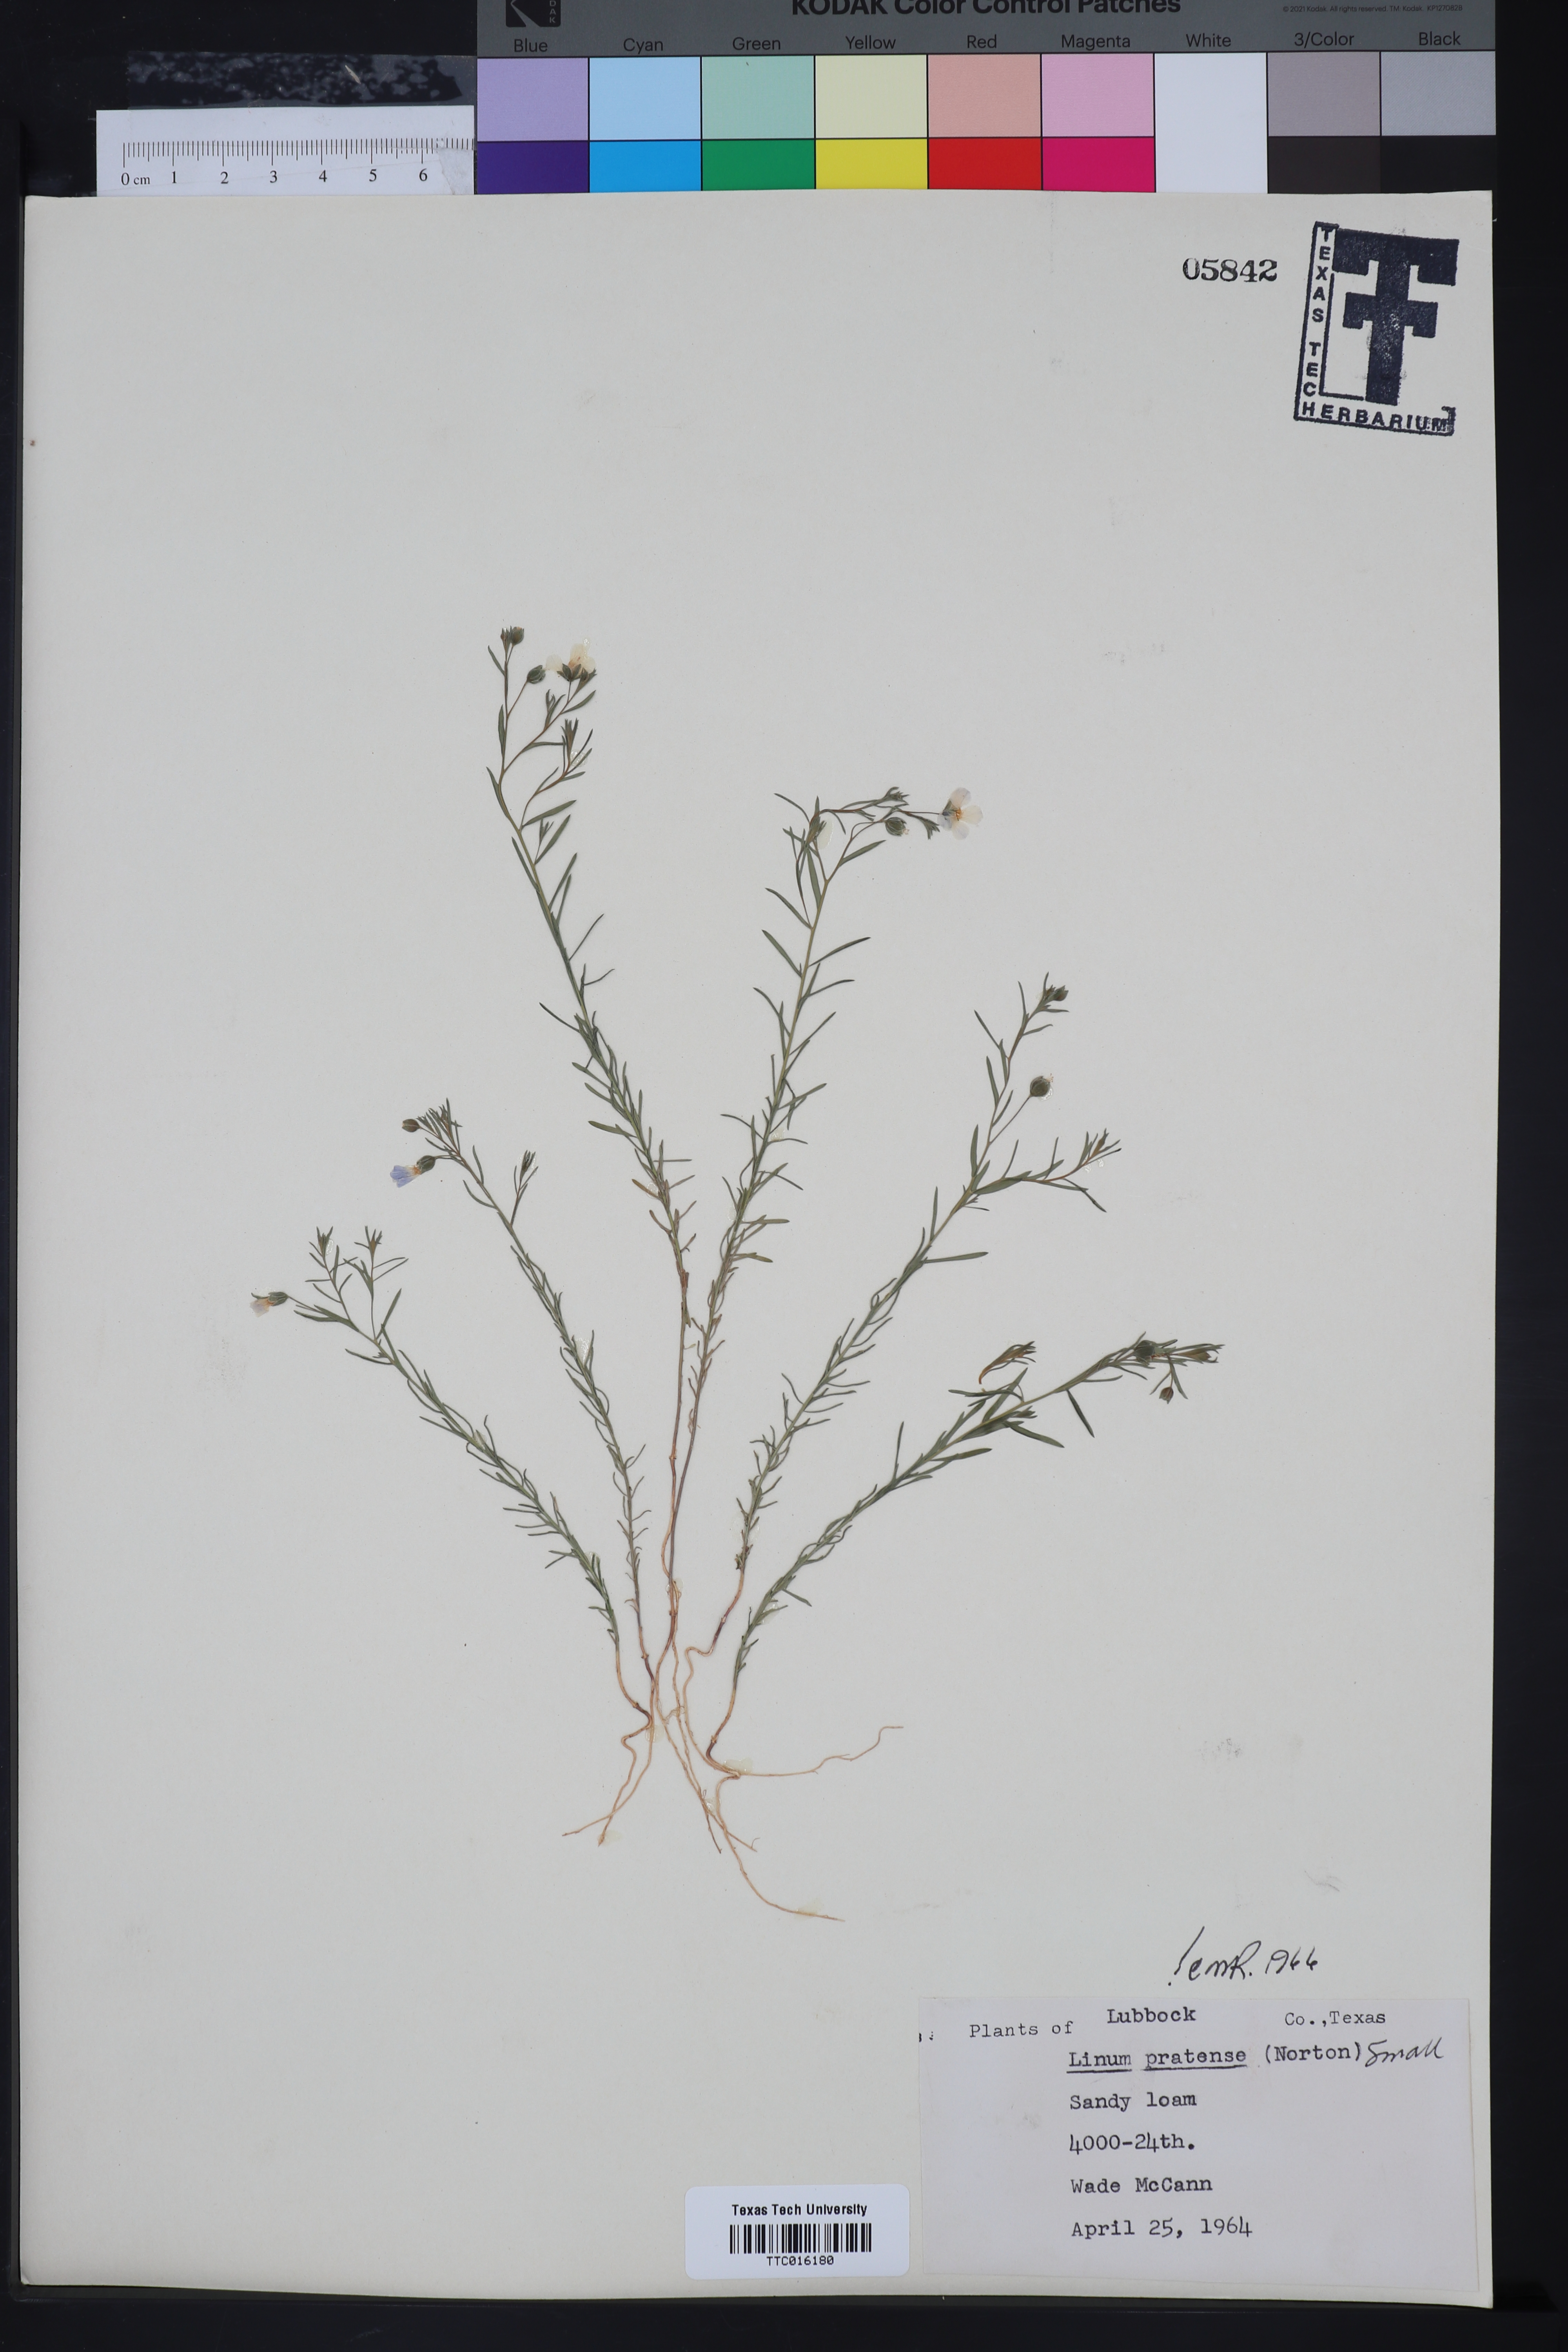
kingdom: Plantae
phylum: Tracheophyta
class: Magnoliopsida
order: Malpighiales
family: Linaceae
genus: Linum
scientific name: Linum pratense
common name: Norton's flax
